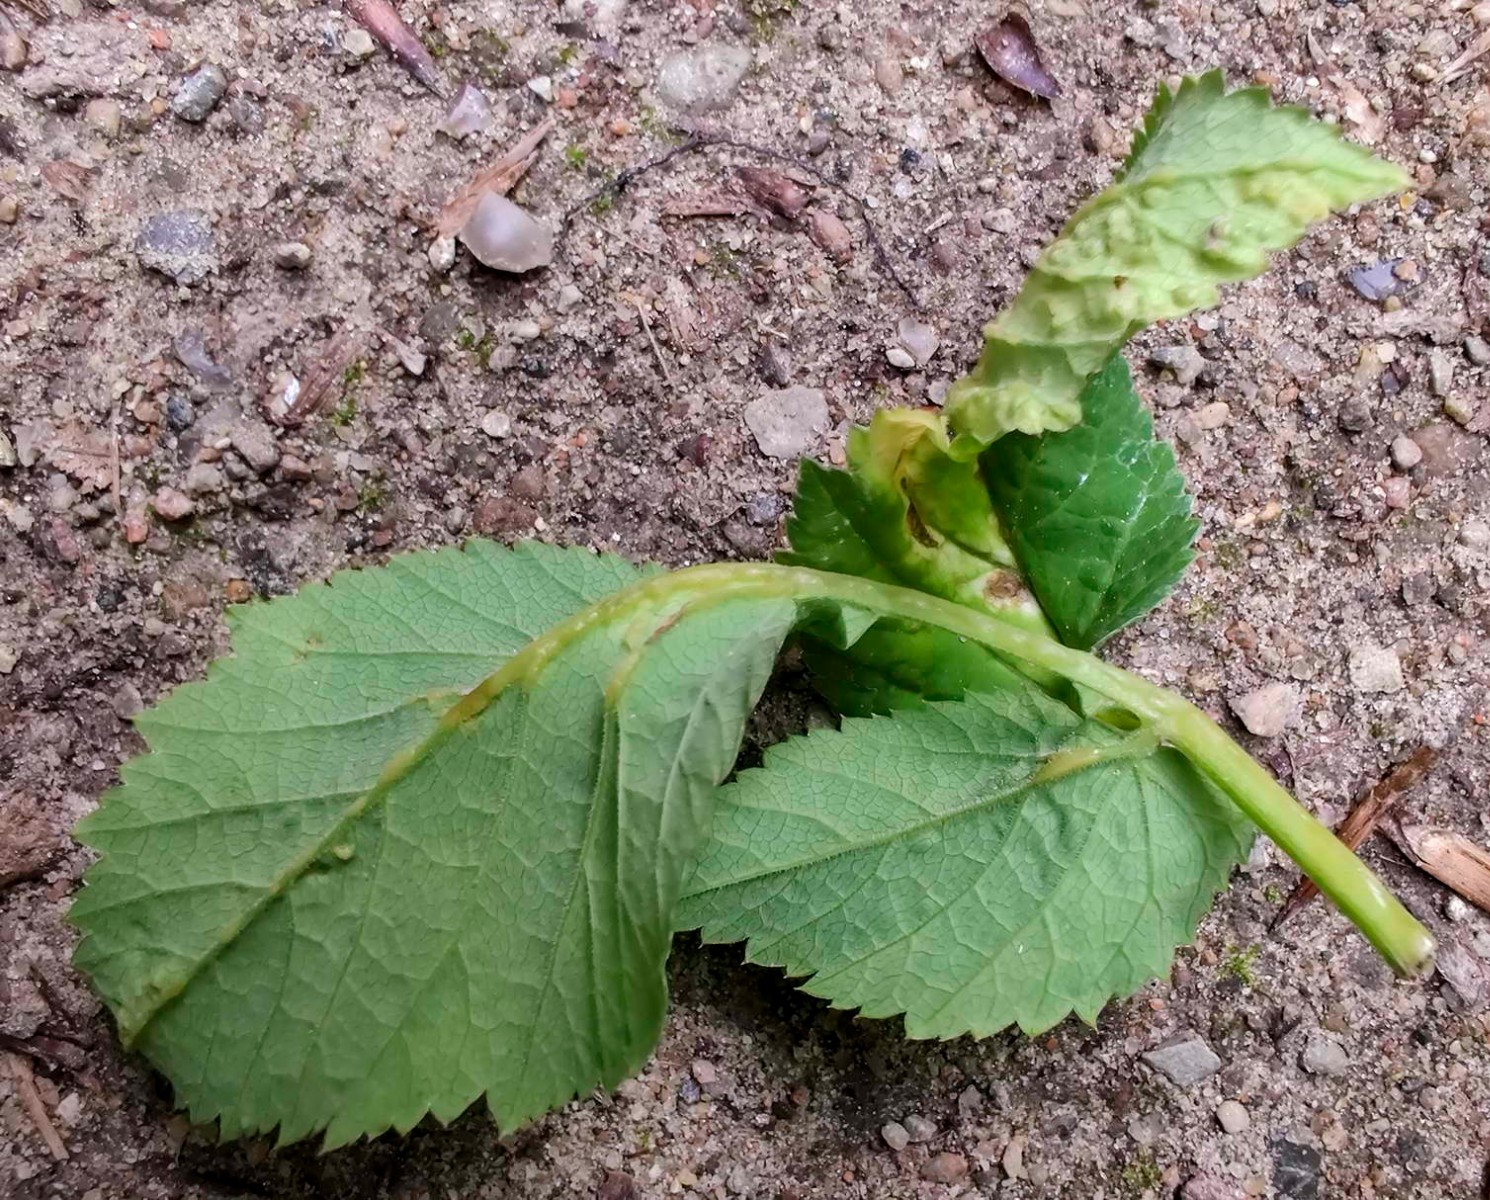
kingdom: Fungi
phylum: Ascomycota
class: Taphrinomycetes
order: Taphrinales
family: Taphrinaceae
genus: Protomyces
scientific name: Protomyces macrosporus
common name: skvalderkål-vablesæk
